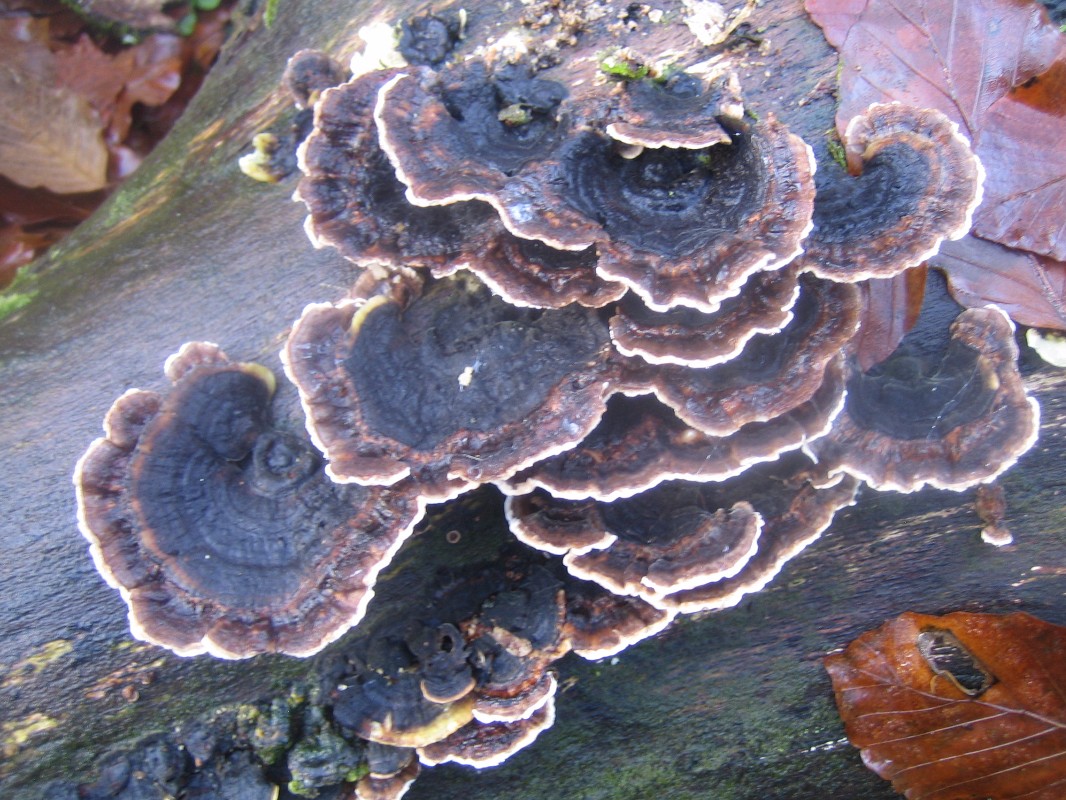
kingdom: Fungi
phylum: Basidiomycota
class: Agaricomycetes
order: Polyporales
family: Polyporaceae
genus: Trametes
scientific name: Trametes versicolor
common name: broget læderporesvamp
